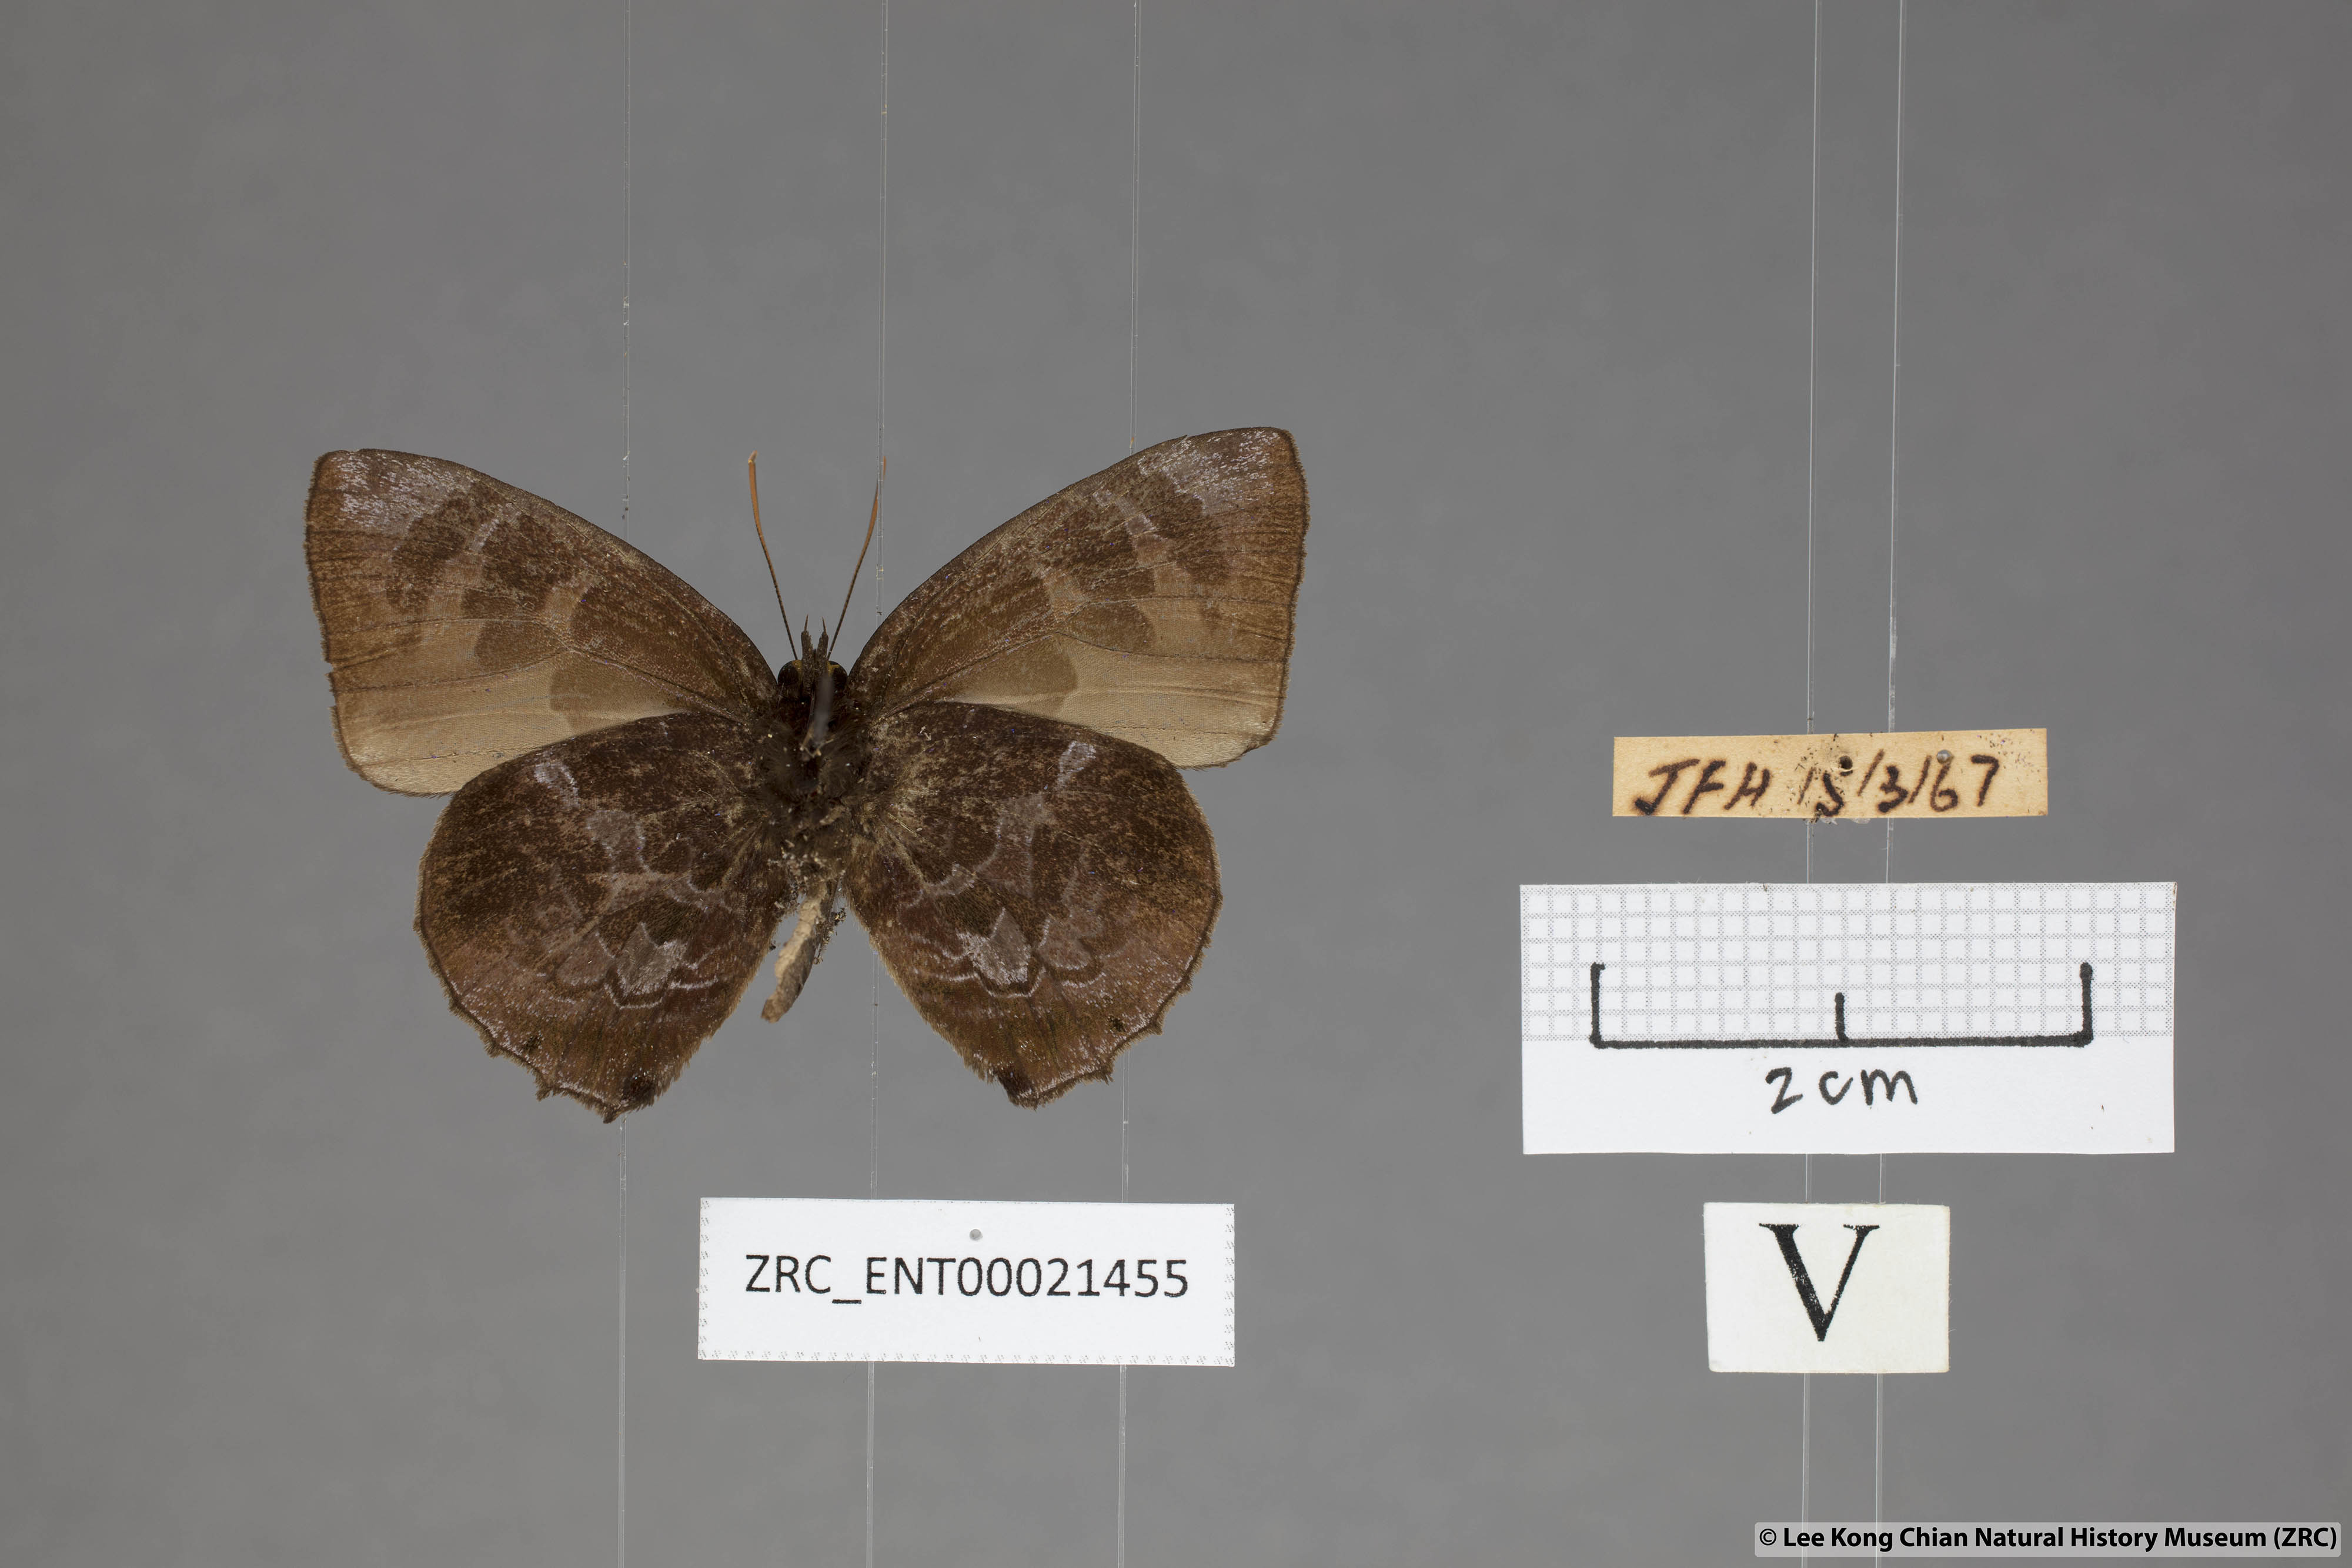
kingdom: Animalia
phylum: Arthropoda
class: Insecta
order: Lepidoptera
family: Lycaenidae
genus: Flos
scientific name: Flos
